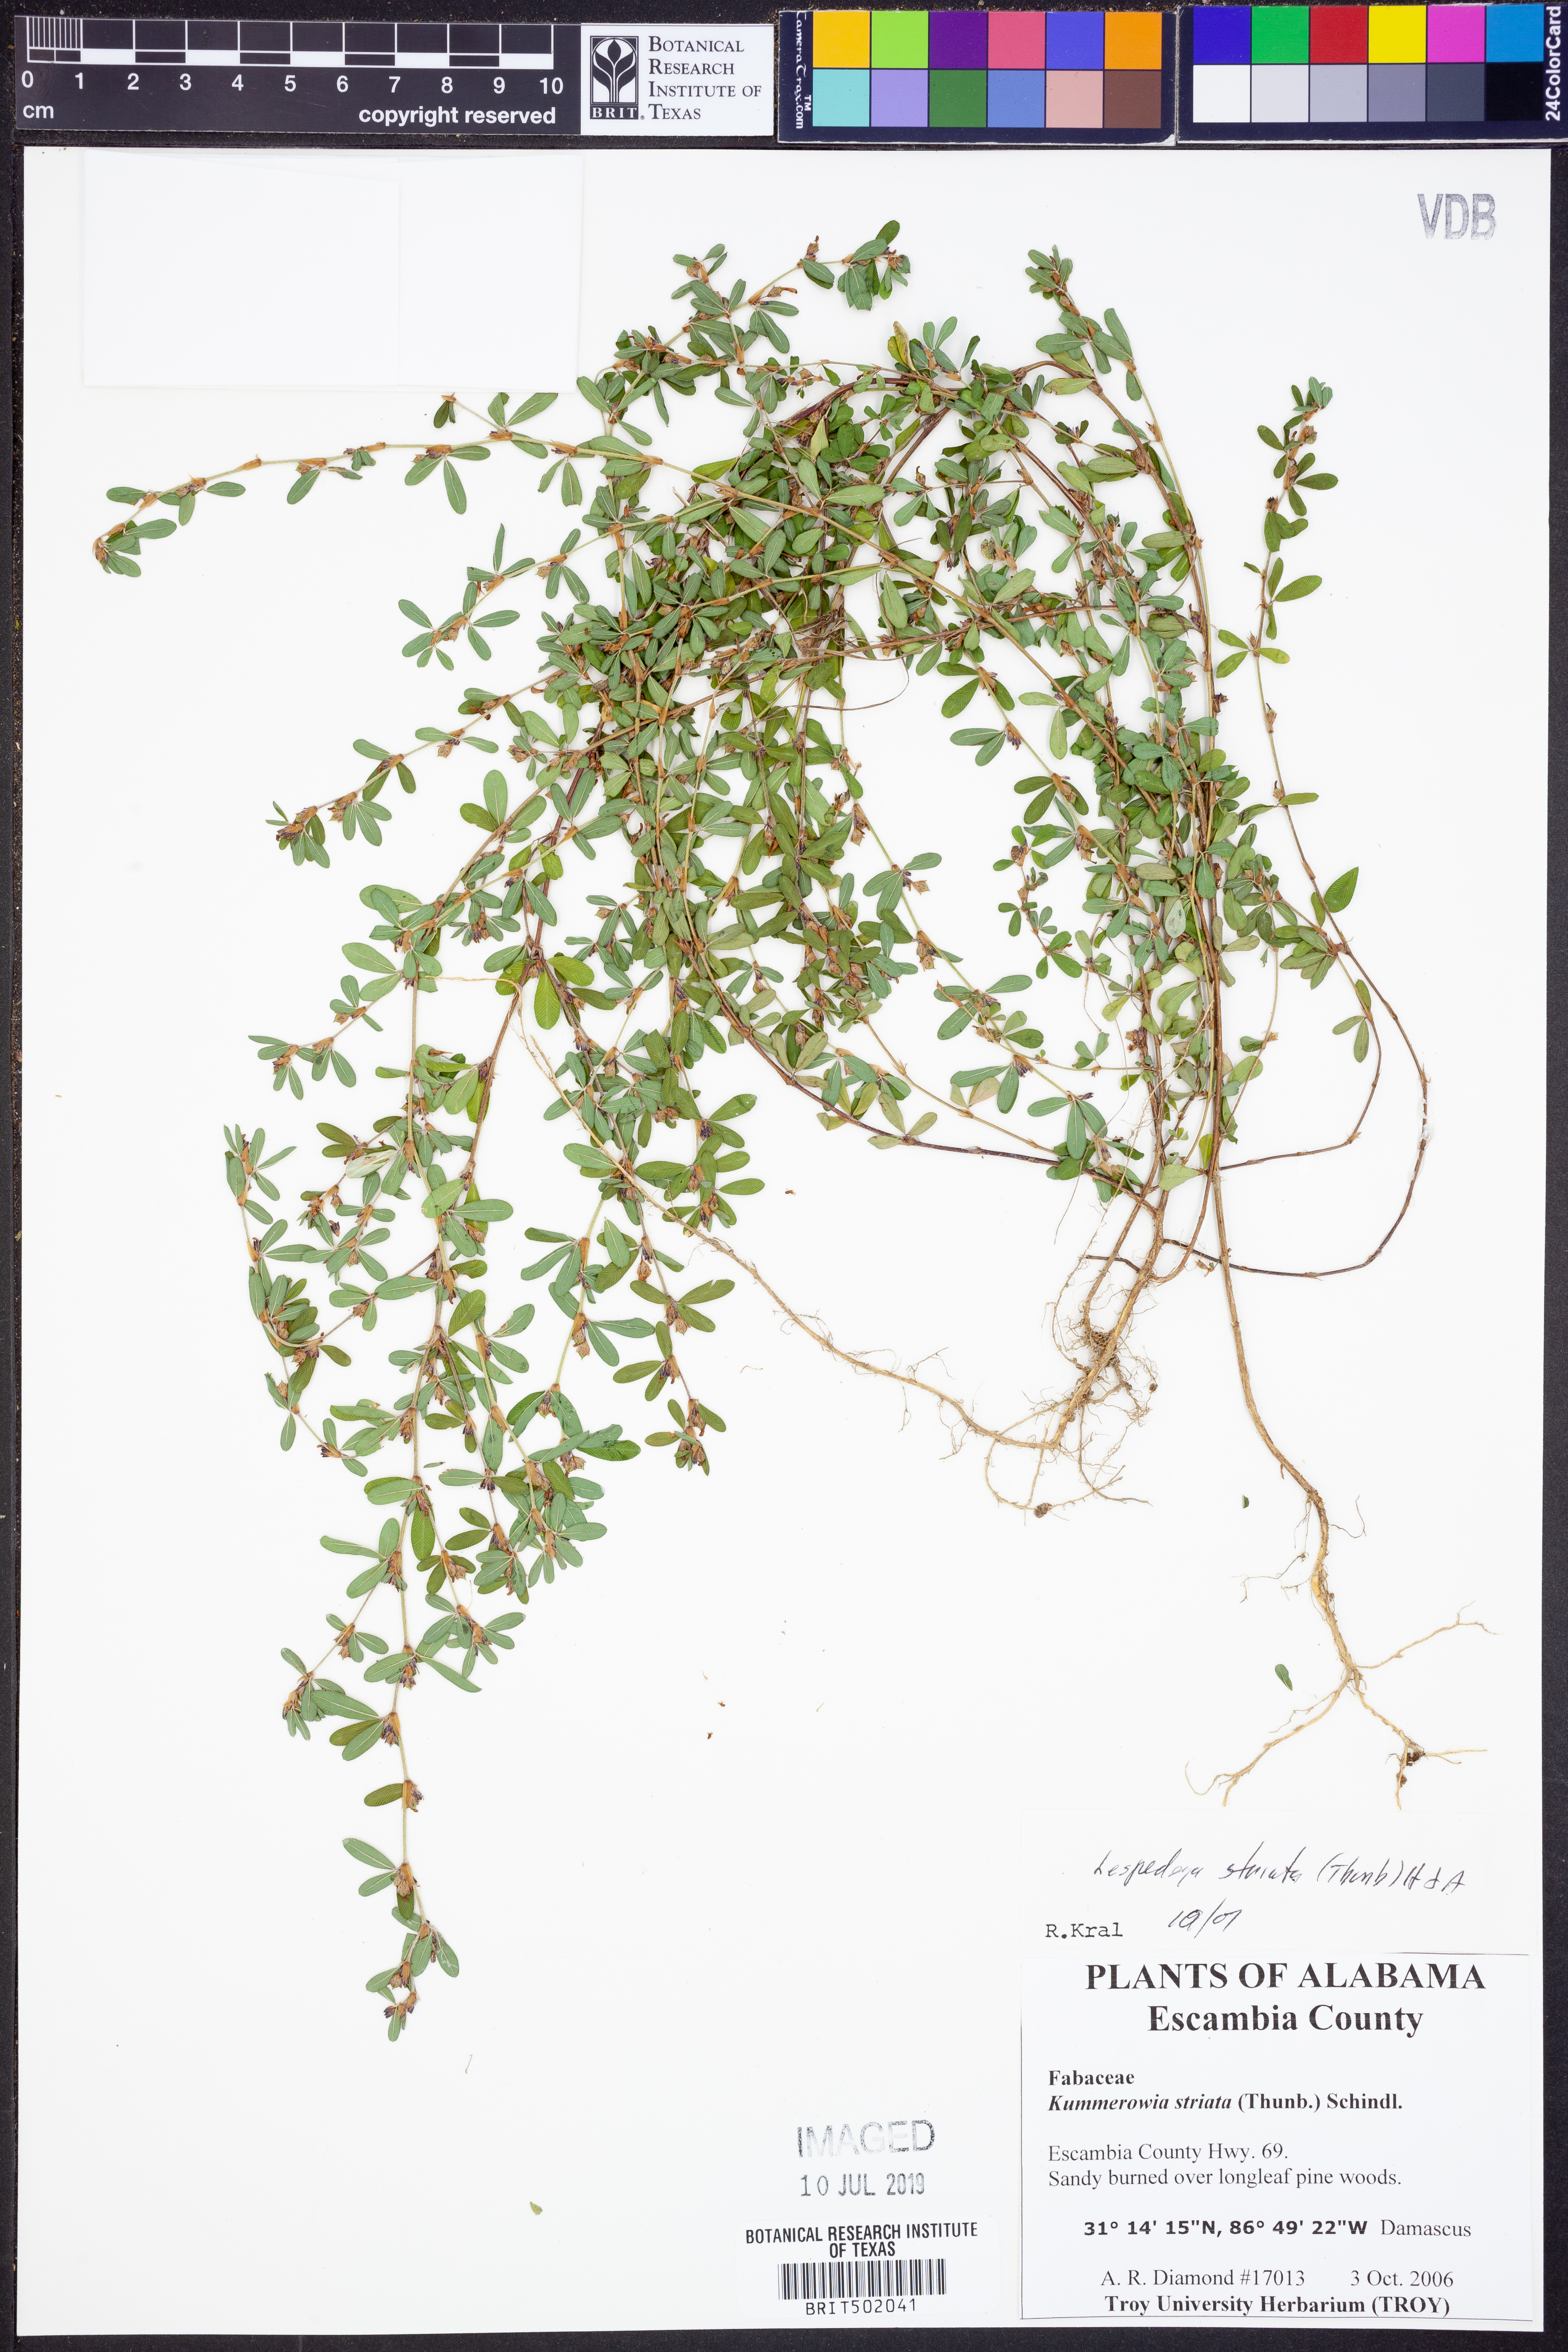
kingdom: Plantae
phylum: Tracheophyta
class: Magnoliopsida
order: Fabales
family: Fabaceae
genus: Kummerowia
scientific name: Kummerowia striata
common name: Japanese clover
